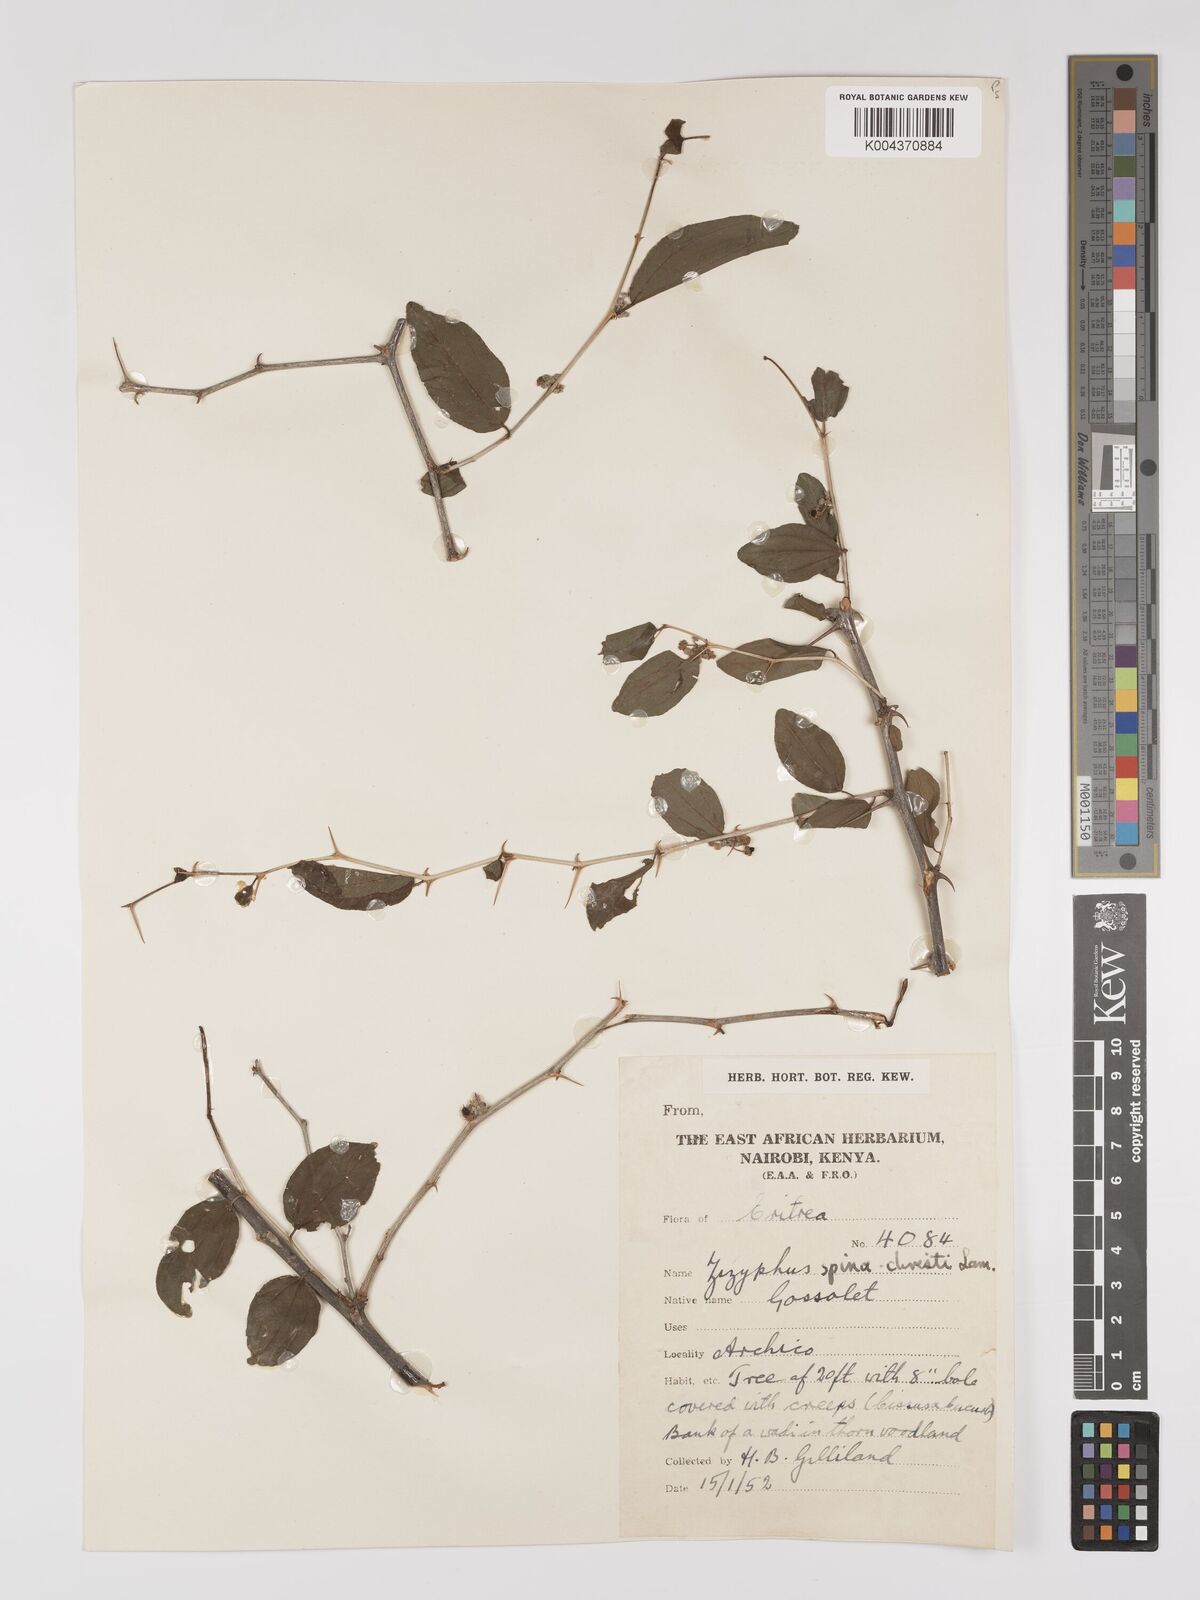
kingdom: Plantae
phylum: Tracheophyta
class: Magnoliopsida
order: Rosales
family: Rhamnaceae
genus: Ziziphus
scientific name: Ziziphus spina-christi
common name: Syrian christ-thorn
